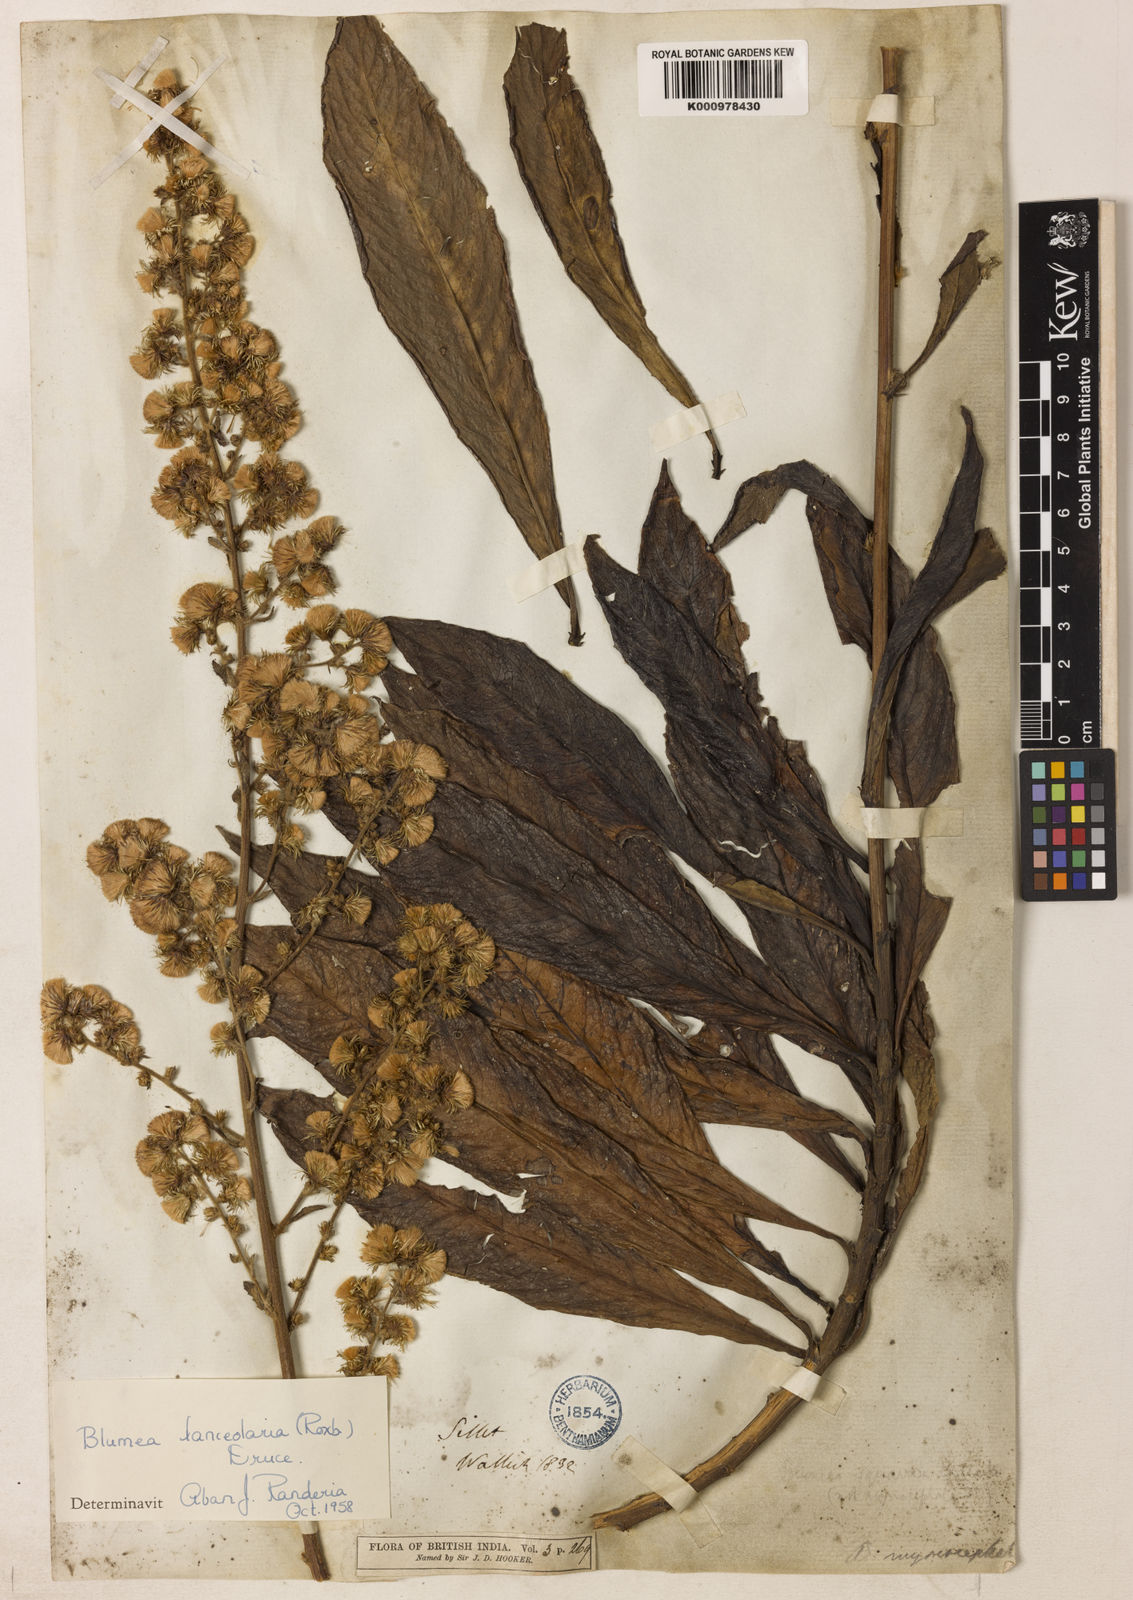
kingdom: Plantae
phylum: Tracheophyta
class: Magnoliopsida
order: Asterales
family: Asteraceae
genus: Blumea
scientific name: Blumea lanceolaria
